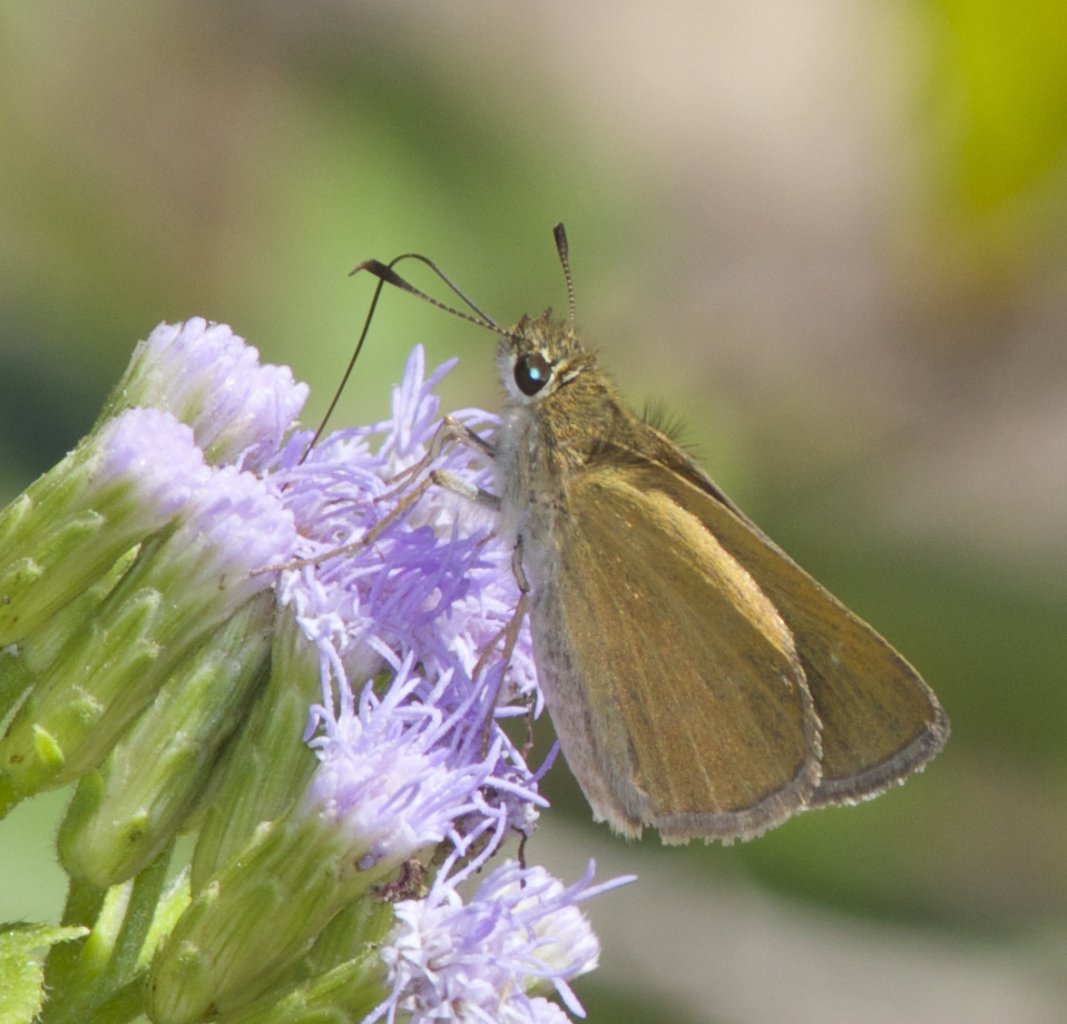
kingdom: Animalia
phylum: Arthropoda
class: Insecta
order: Lepidoptera
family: Hesperiidae
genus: Nastra
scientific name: Nastra julia
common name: Julia's Skipper
